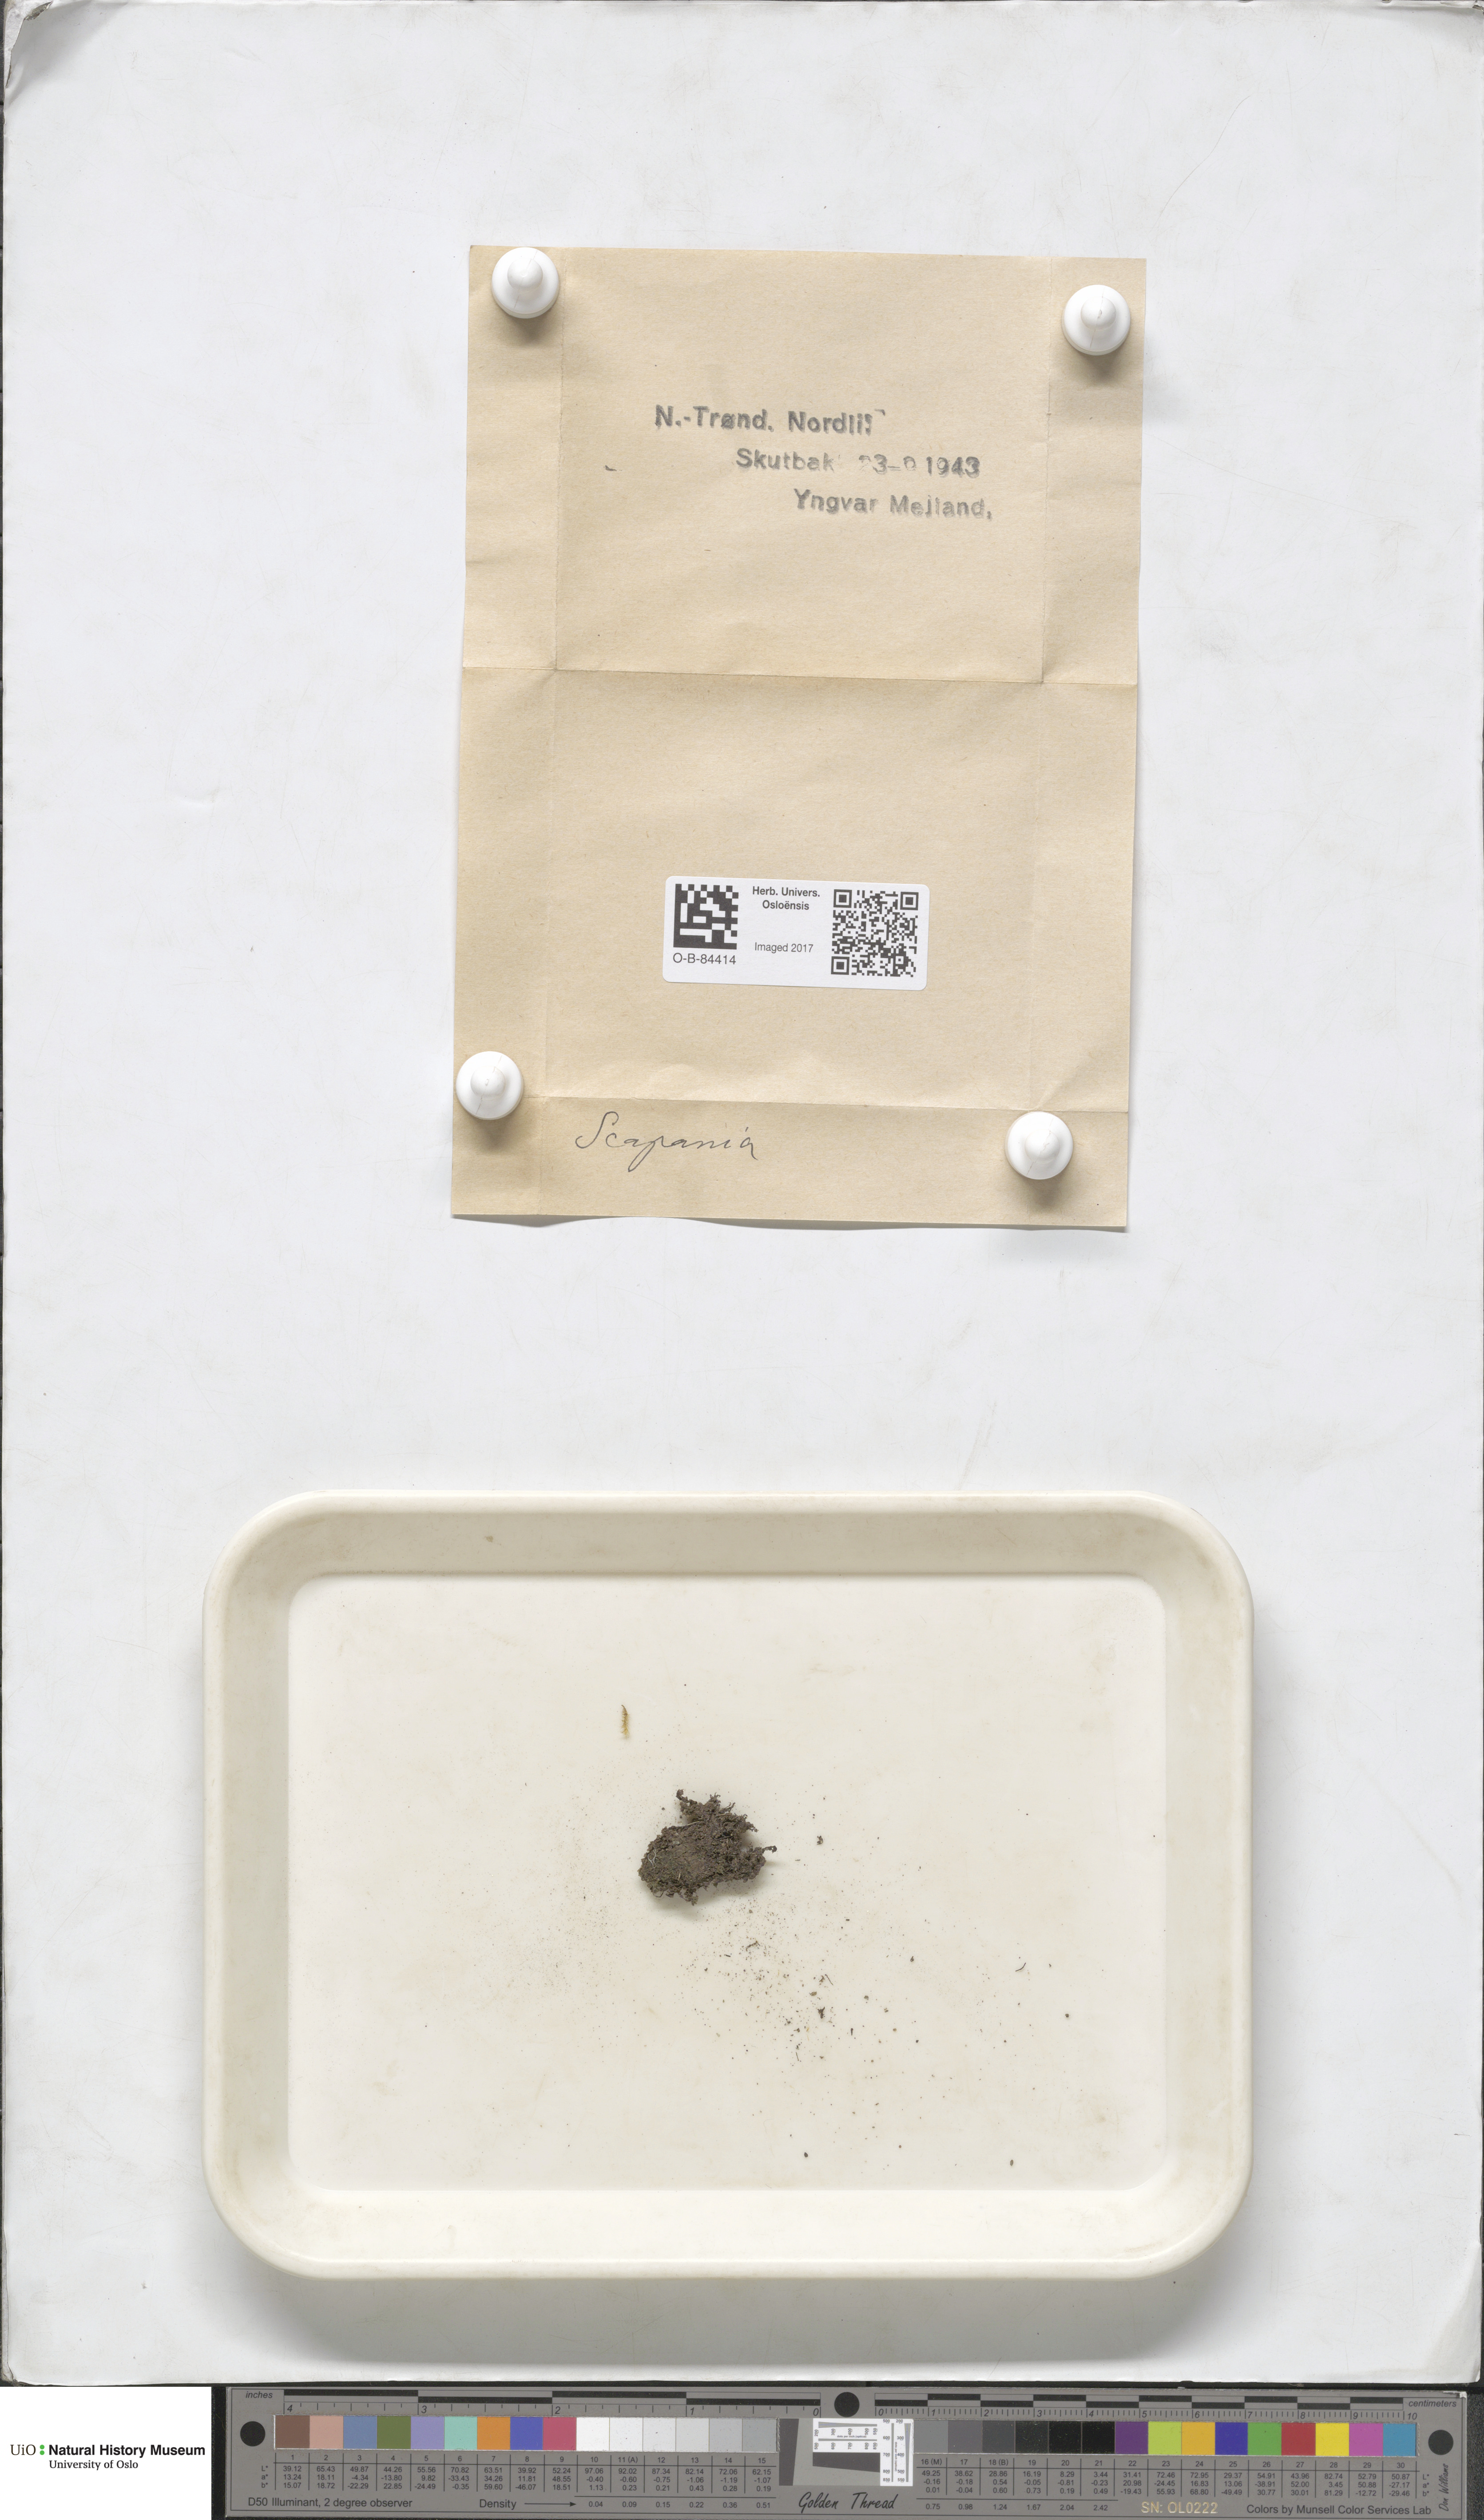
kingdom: Plantae
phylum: Marchantiophyta
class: Jungermanniopsida
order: Jungermanniales
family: Scapaniaceae
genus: Scapania
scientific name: Scapania
